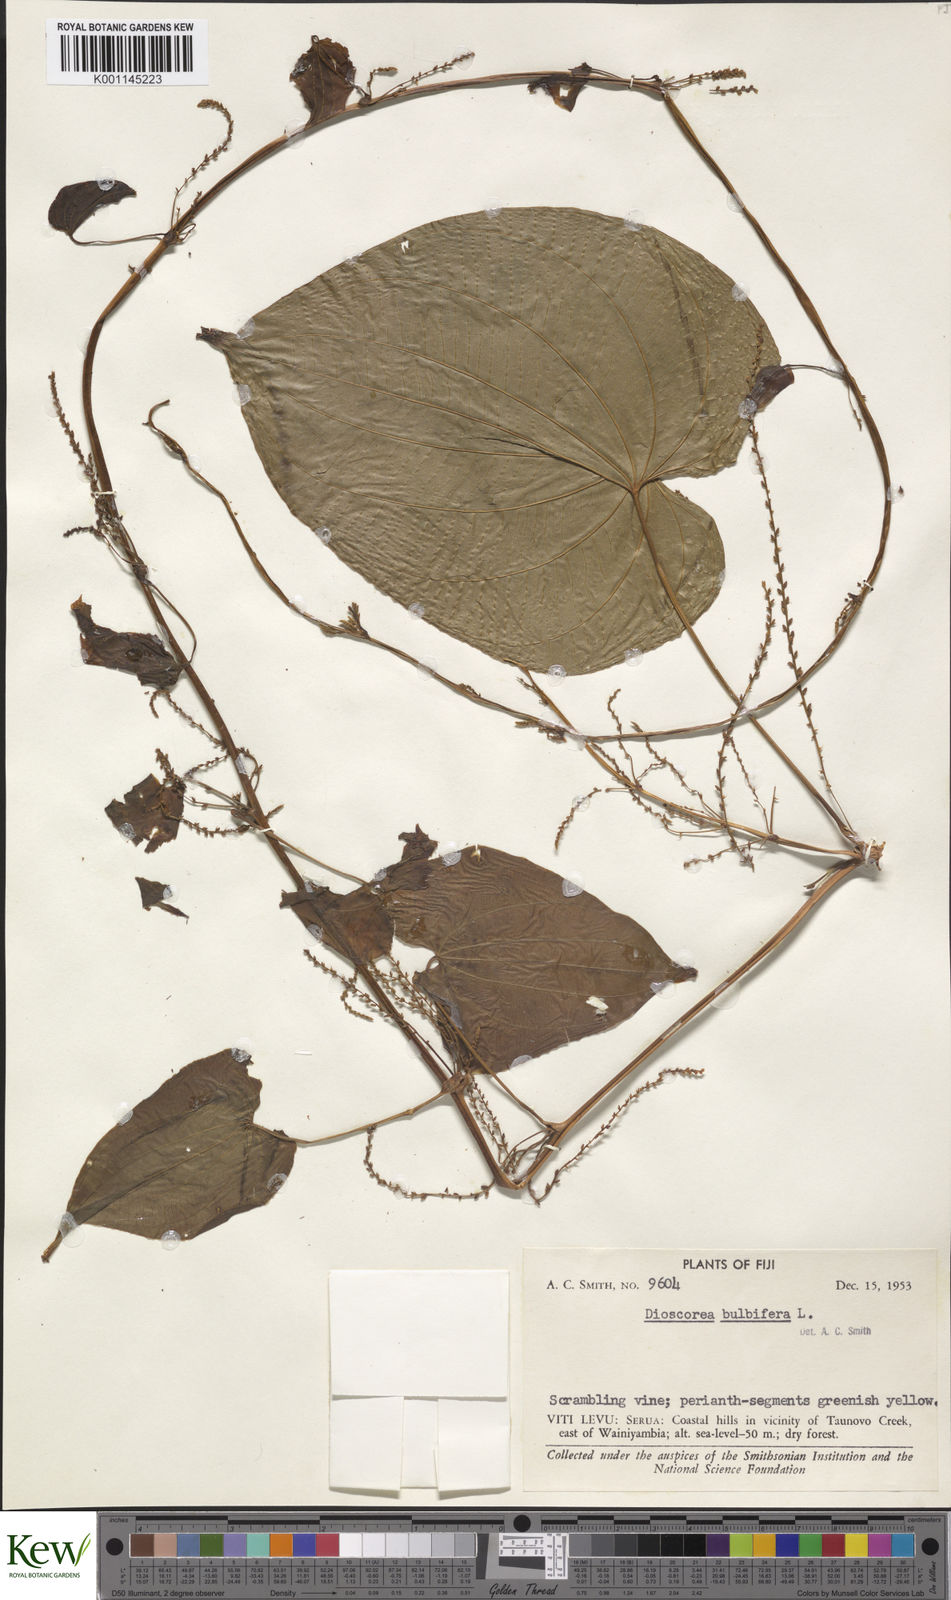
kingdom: Plantae
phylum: Tracheophyta
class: Liliopsida
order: Dioscoreales
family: Dioscoreaceae
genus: Dioscorea
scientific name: Dioscorea bulbifera
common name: Air yam
